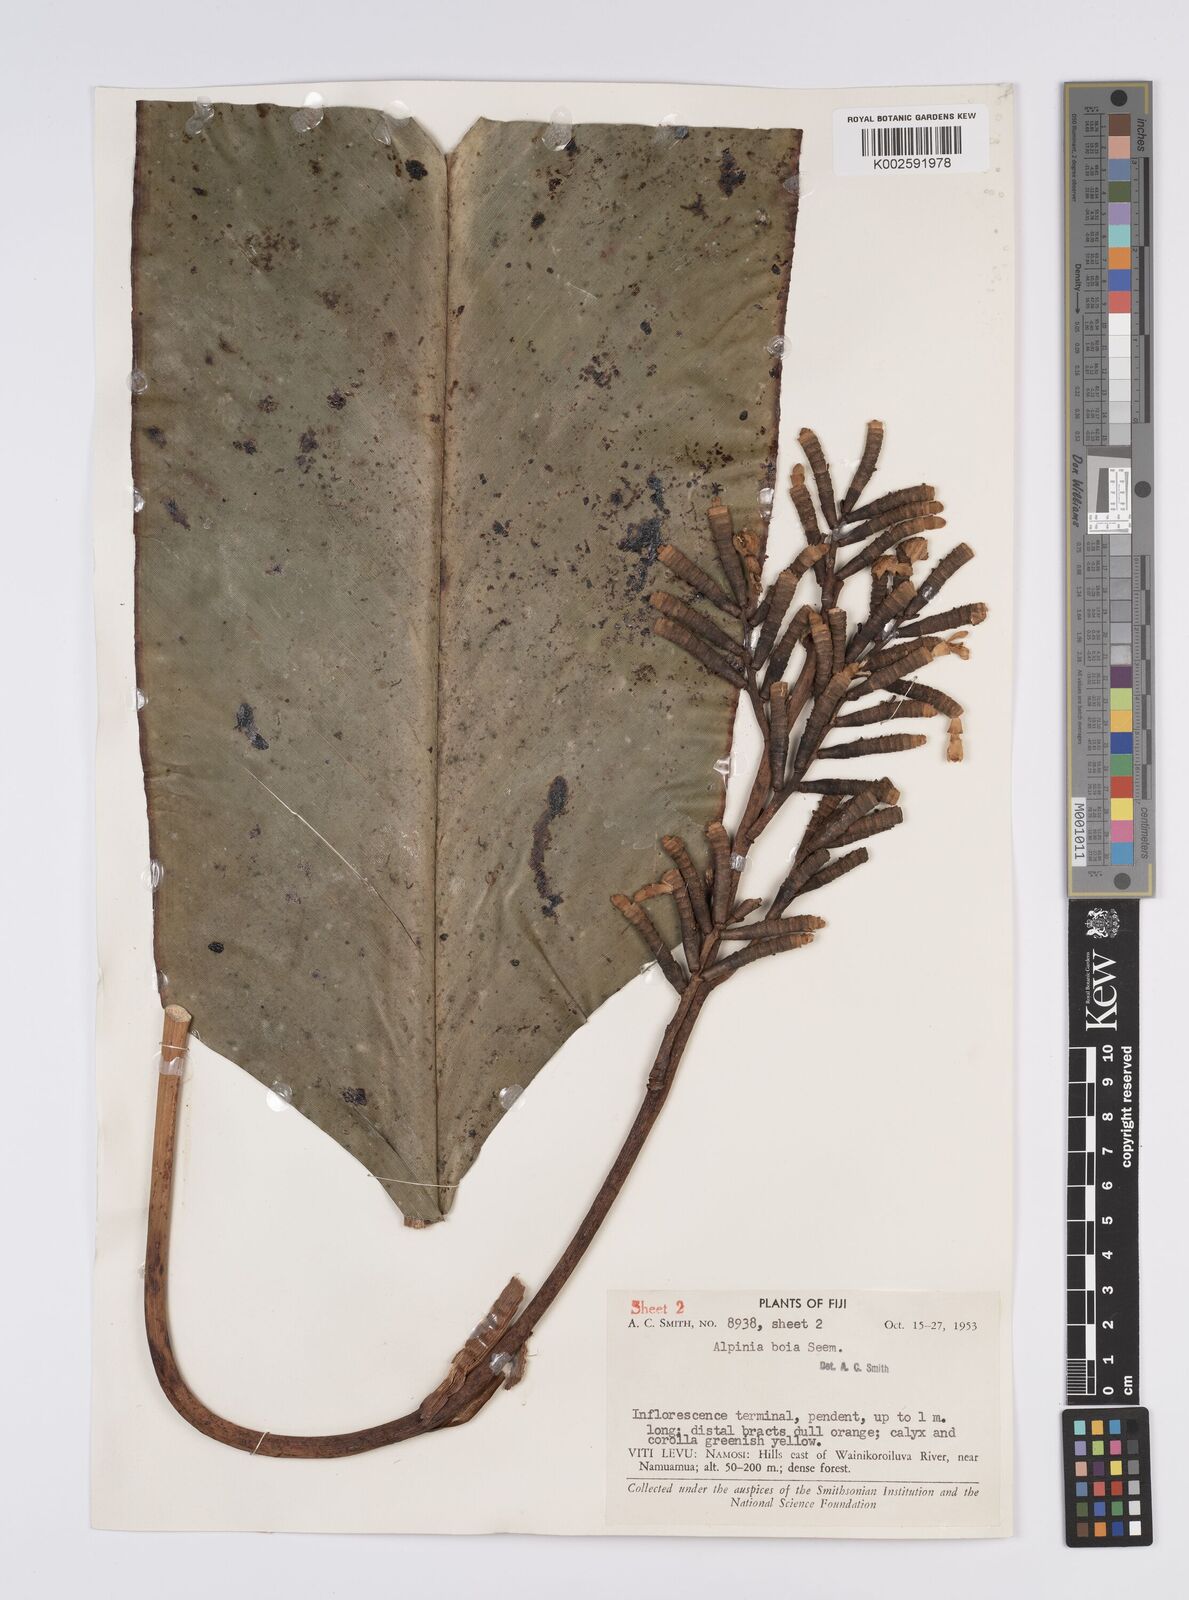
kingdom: Plantae
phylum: Tracheophyta
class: Liliopsida
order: Zingiberales
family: Zingiberaceae
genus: Alpinia
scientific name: Alpinia boia
